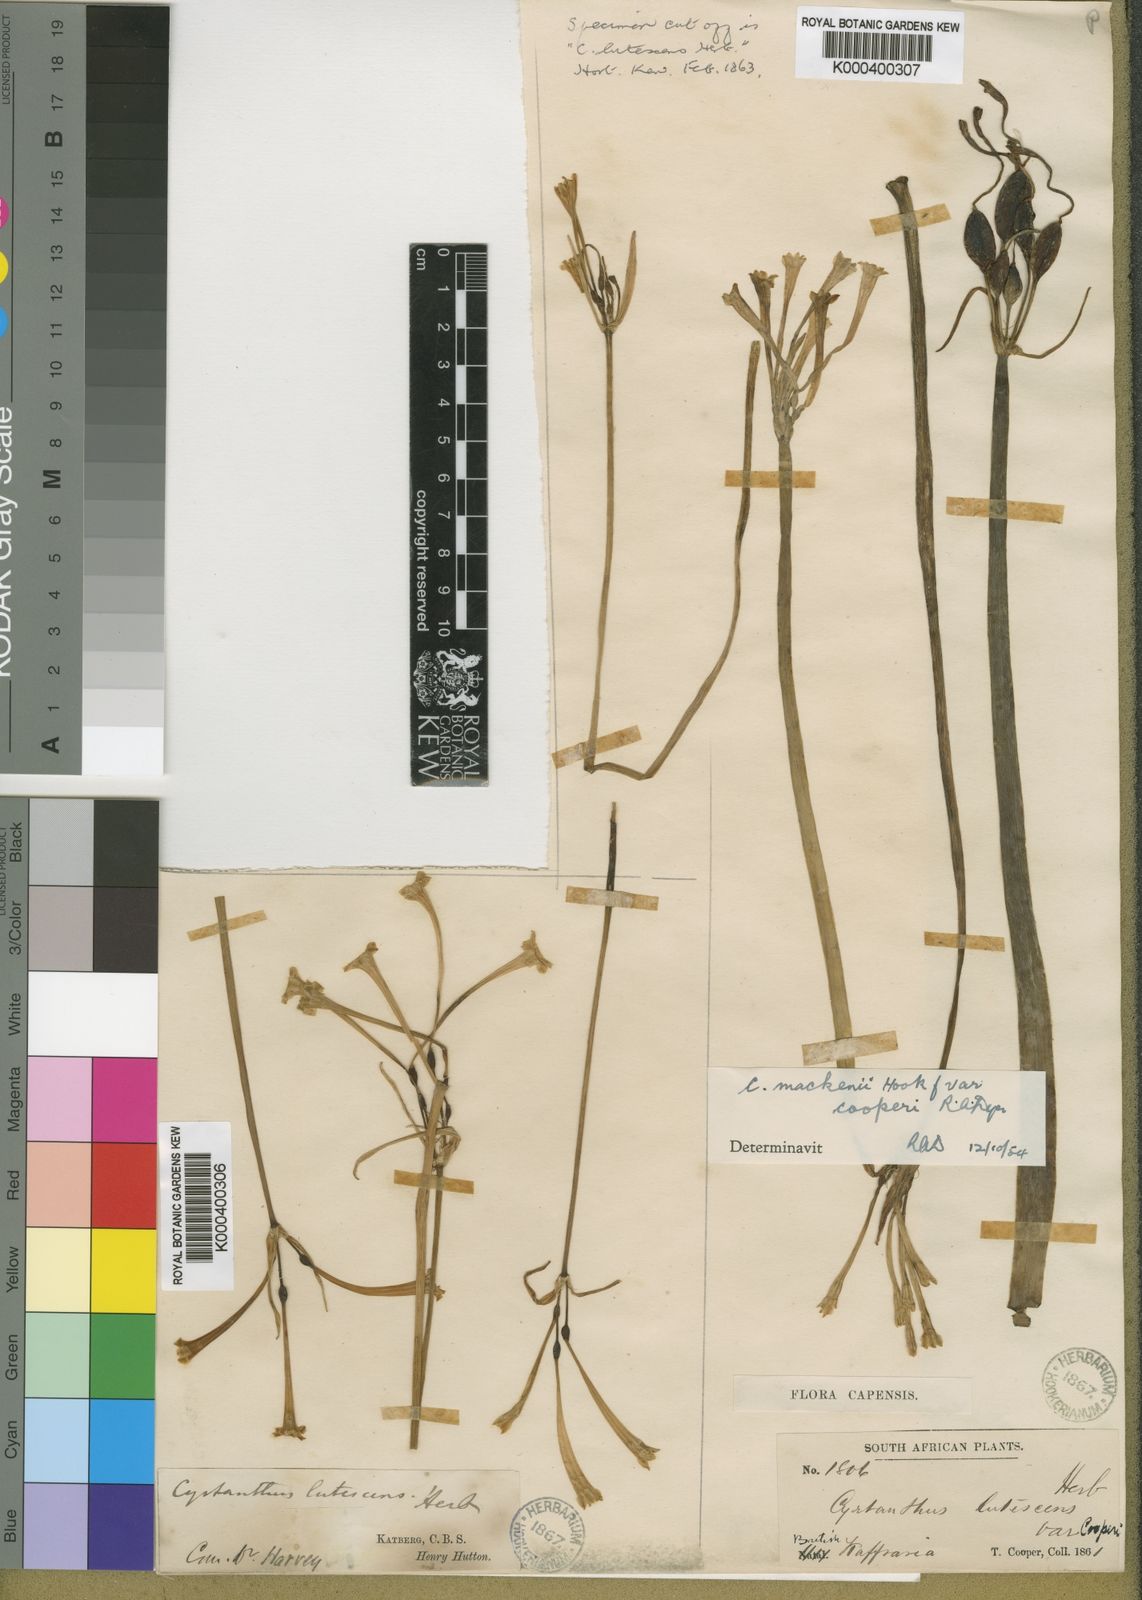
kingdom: Plantae
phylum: Tracheophyta
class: Liliopsida
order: Asparagales
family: Amaryllidaceae
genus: Cyrtanthus
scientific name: Cyrtanthus mackenii
